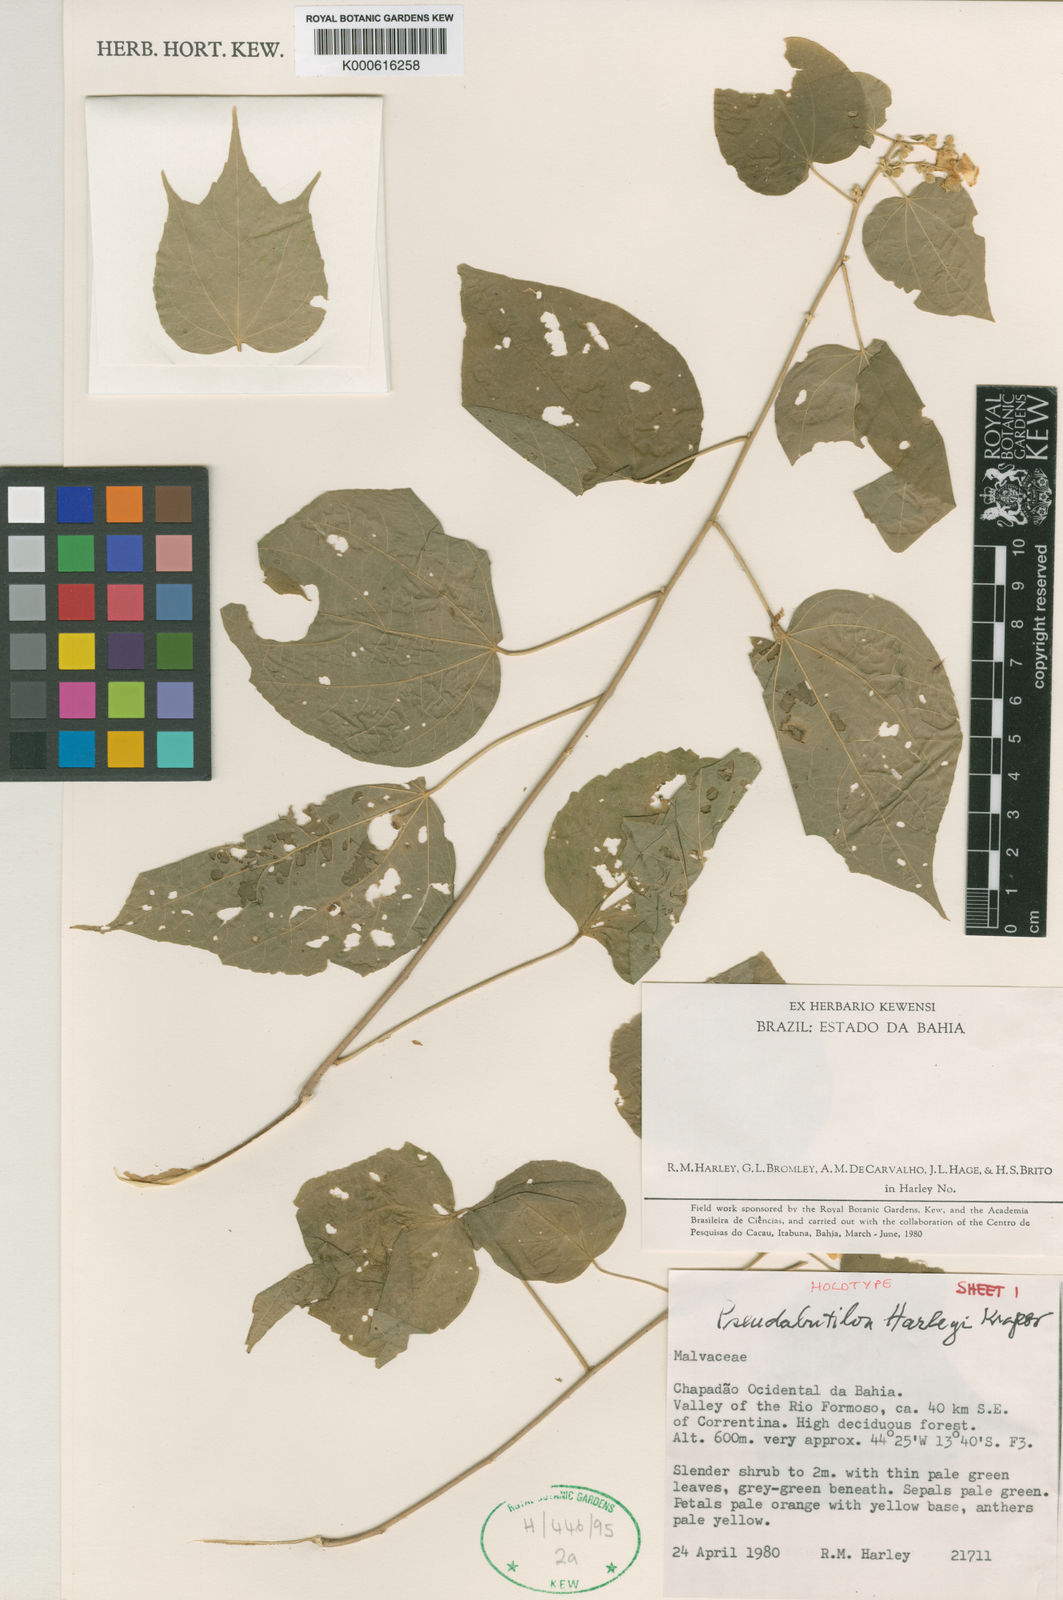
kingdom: Plantae
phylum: Tracheophyta
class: Magnoliopsida
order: Malvales
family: Malvaceae
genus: Pseudabutilon
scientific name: Pseudabutilon harleyi
